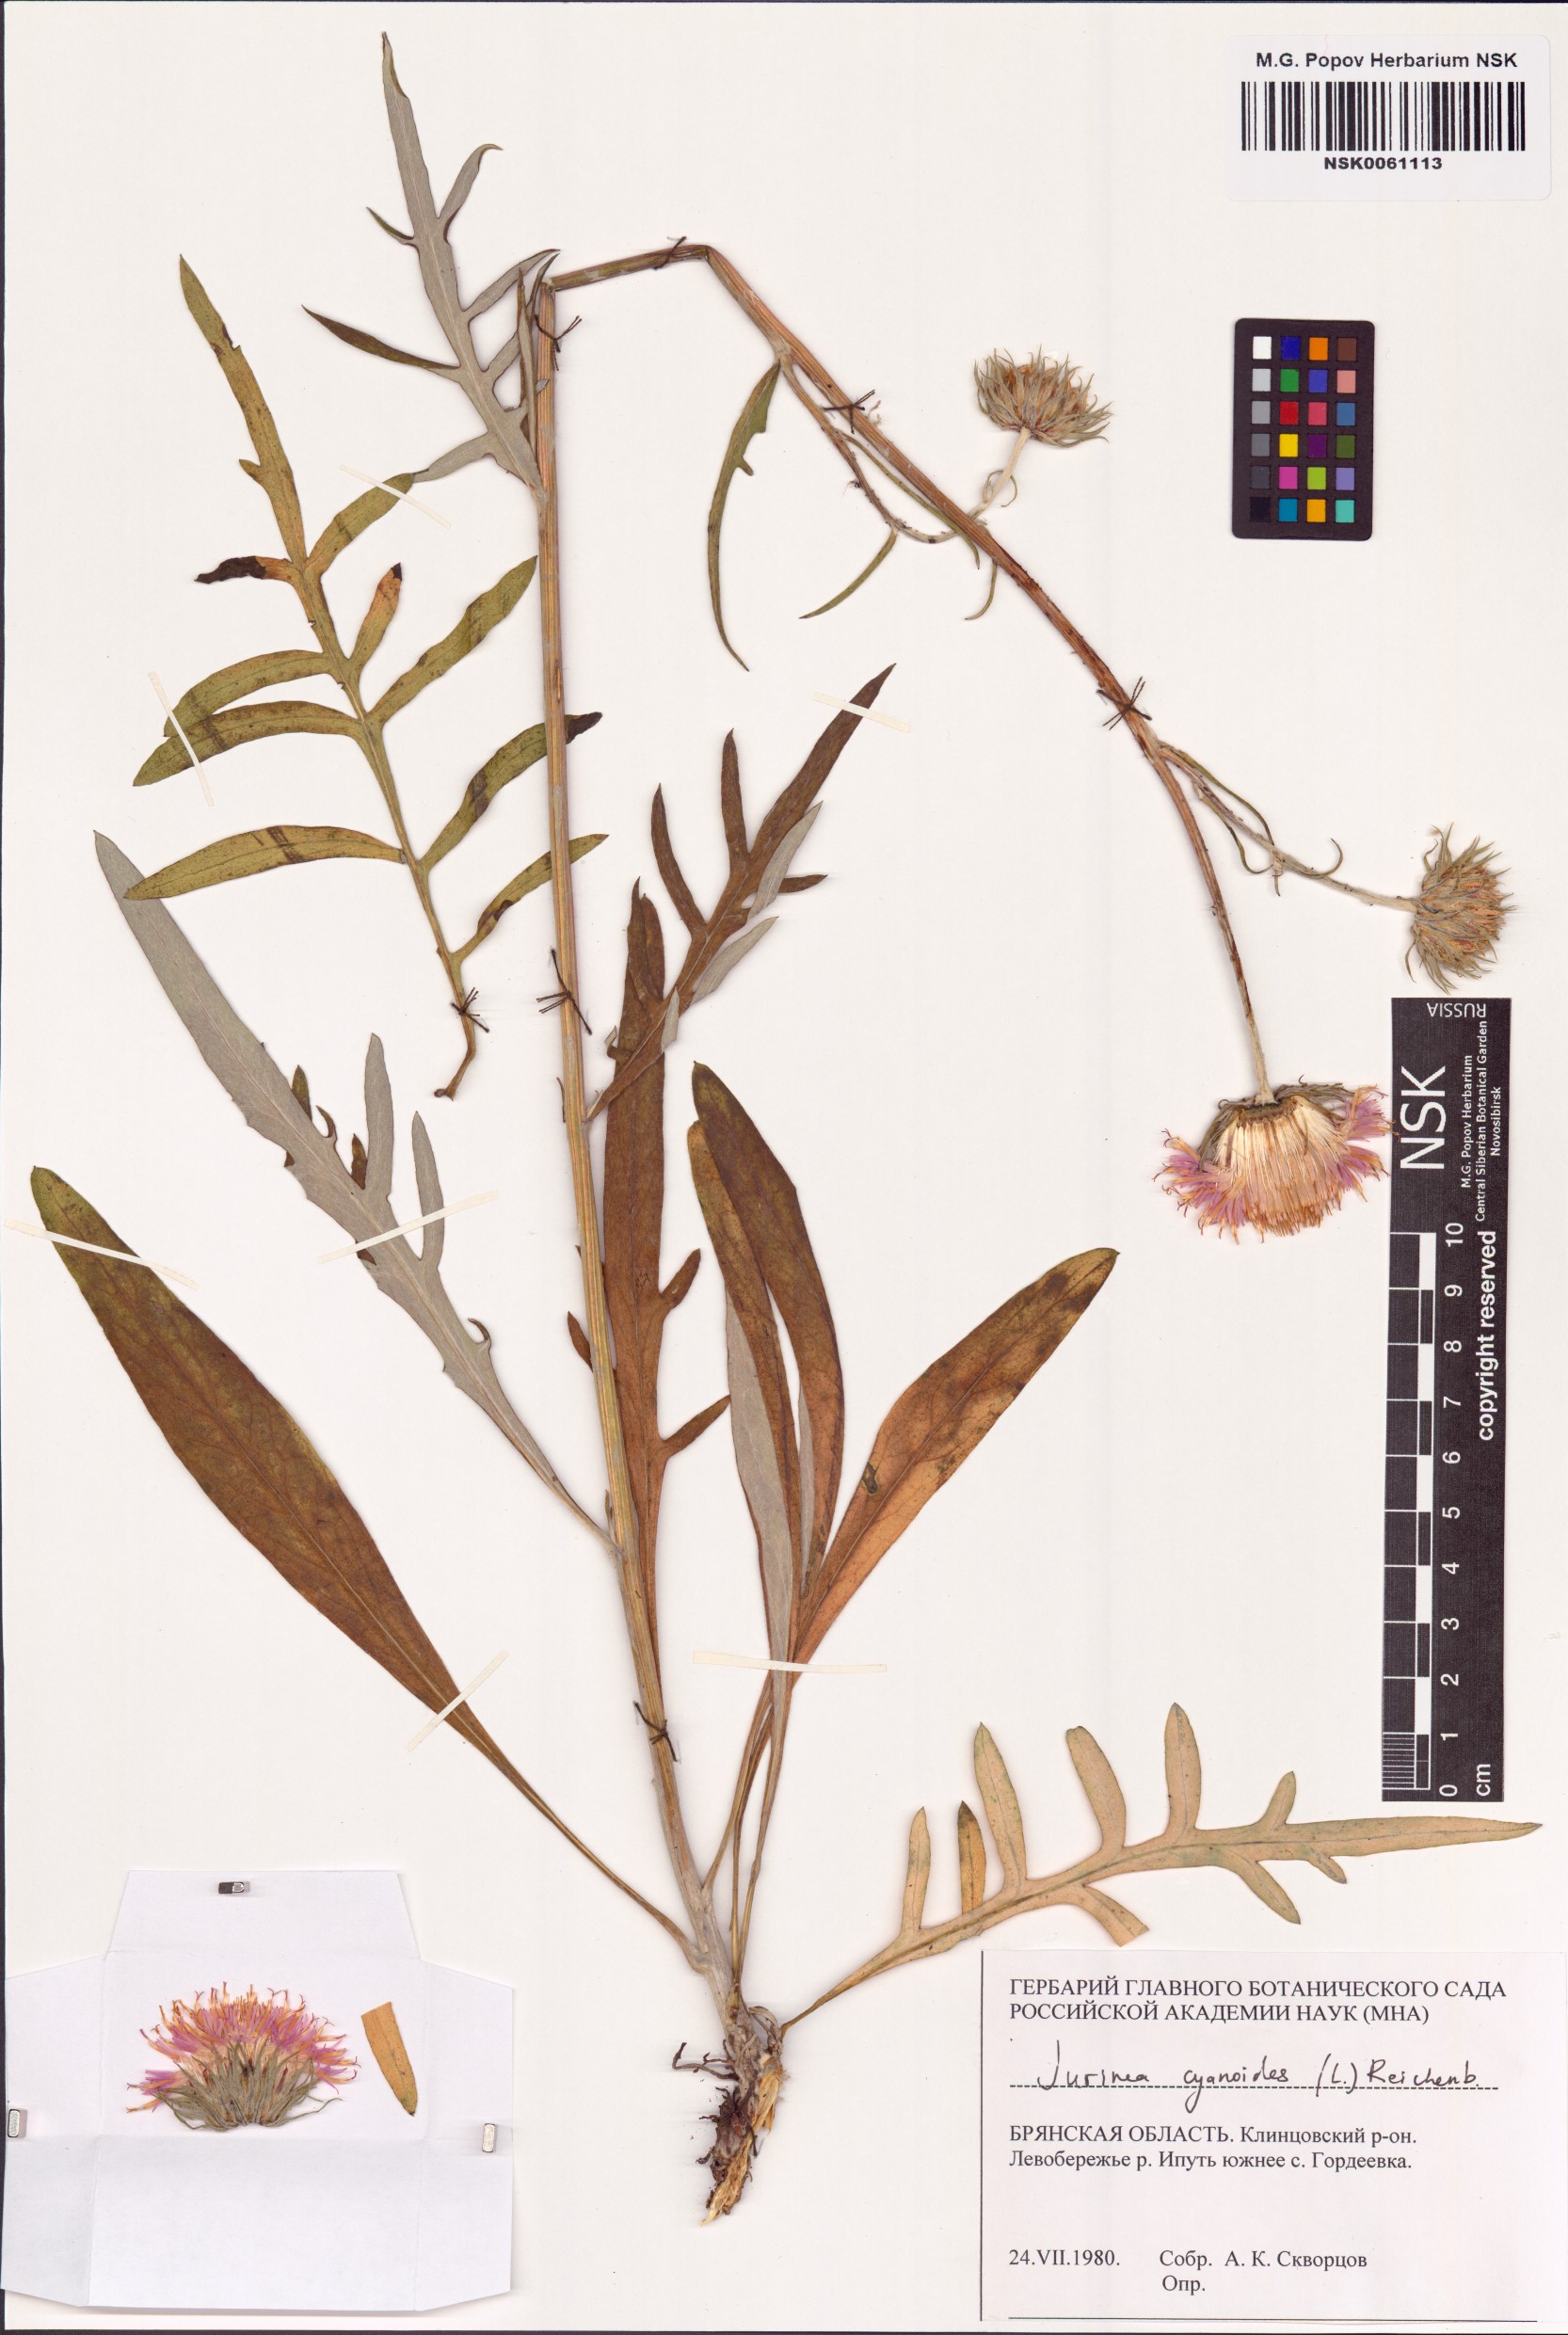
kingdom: Plantae
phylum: Tracheophyta
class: Magnoliopsida
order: Asterales
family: Asteraceae
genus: Jurinea
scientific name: Jurinea cyanoides
